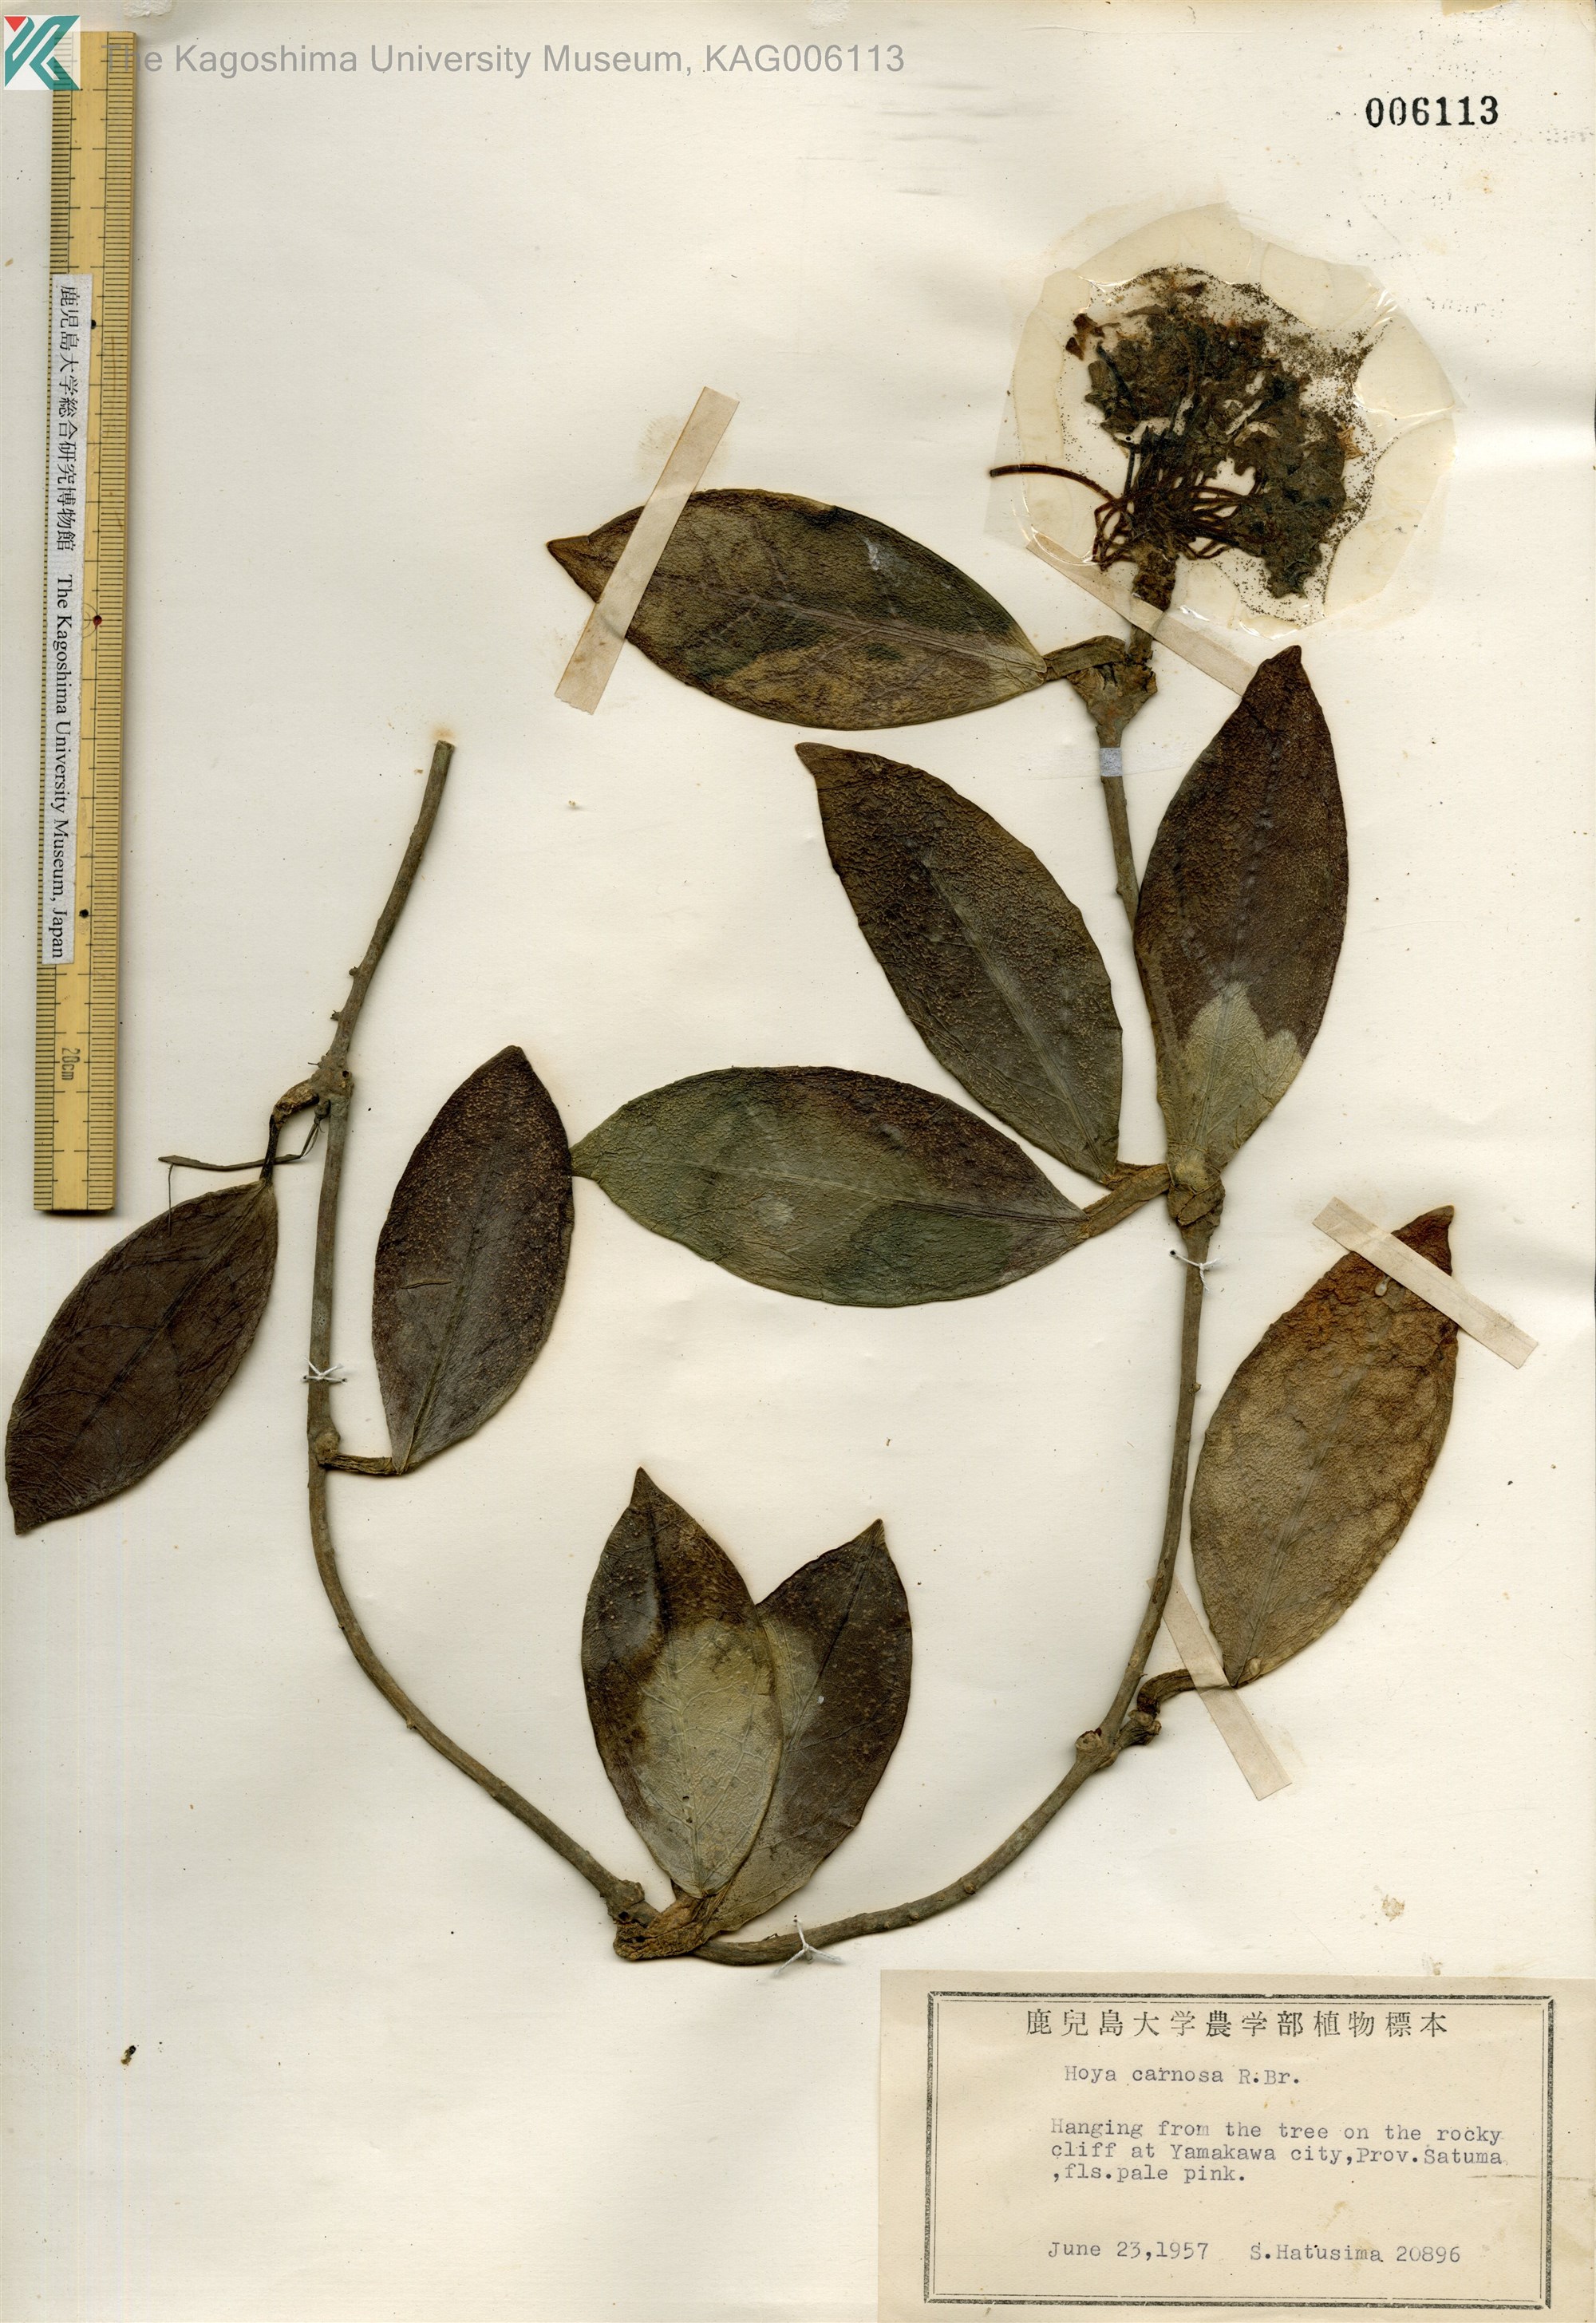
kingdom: Plantae
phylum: Tracheophyta
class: Magnoliopsida
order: Gentianales
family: Apocynaceae
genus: Hoya
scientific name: Hoya carnosa
